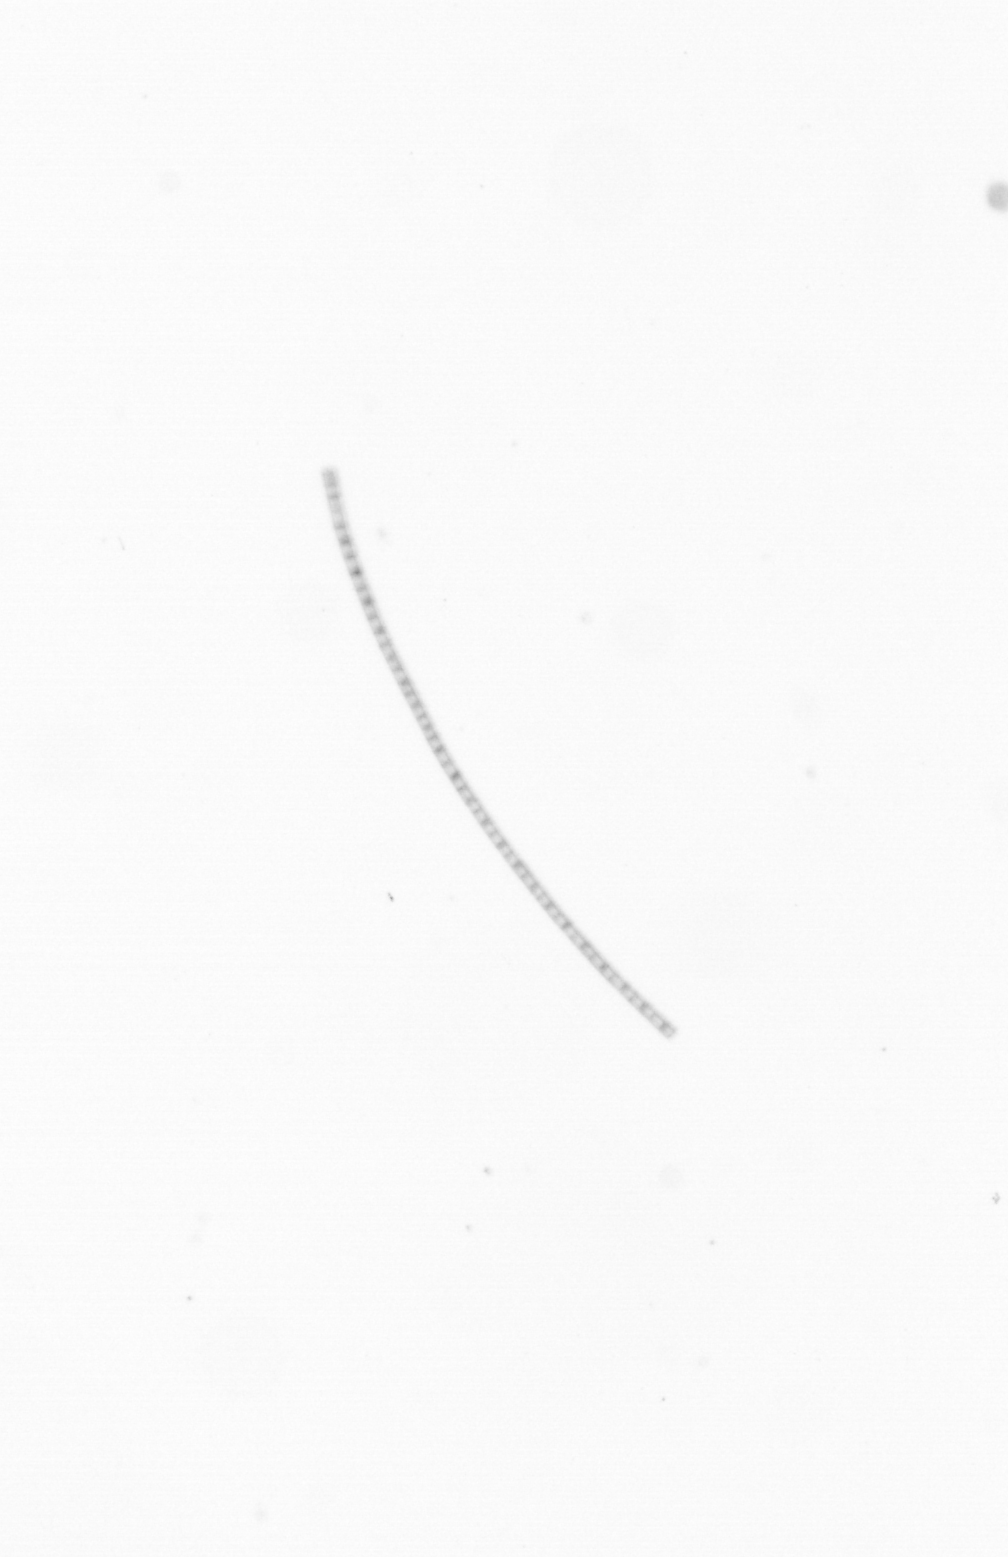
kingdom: Chromista
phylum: Ochrophyta
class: Bacillariophyceae
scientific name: Bacillariophyceae
